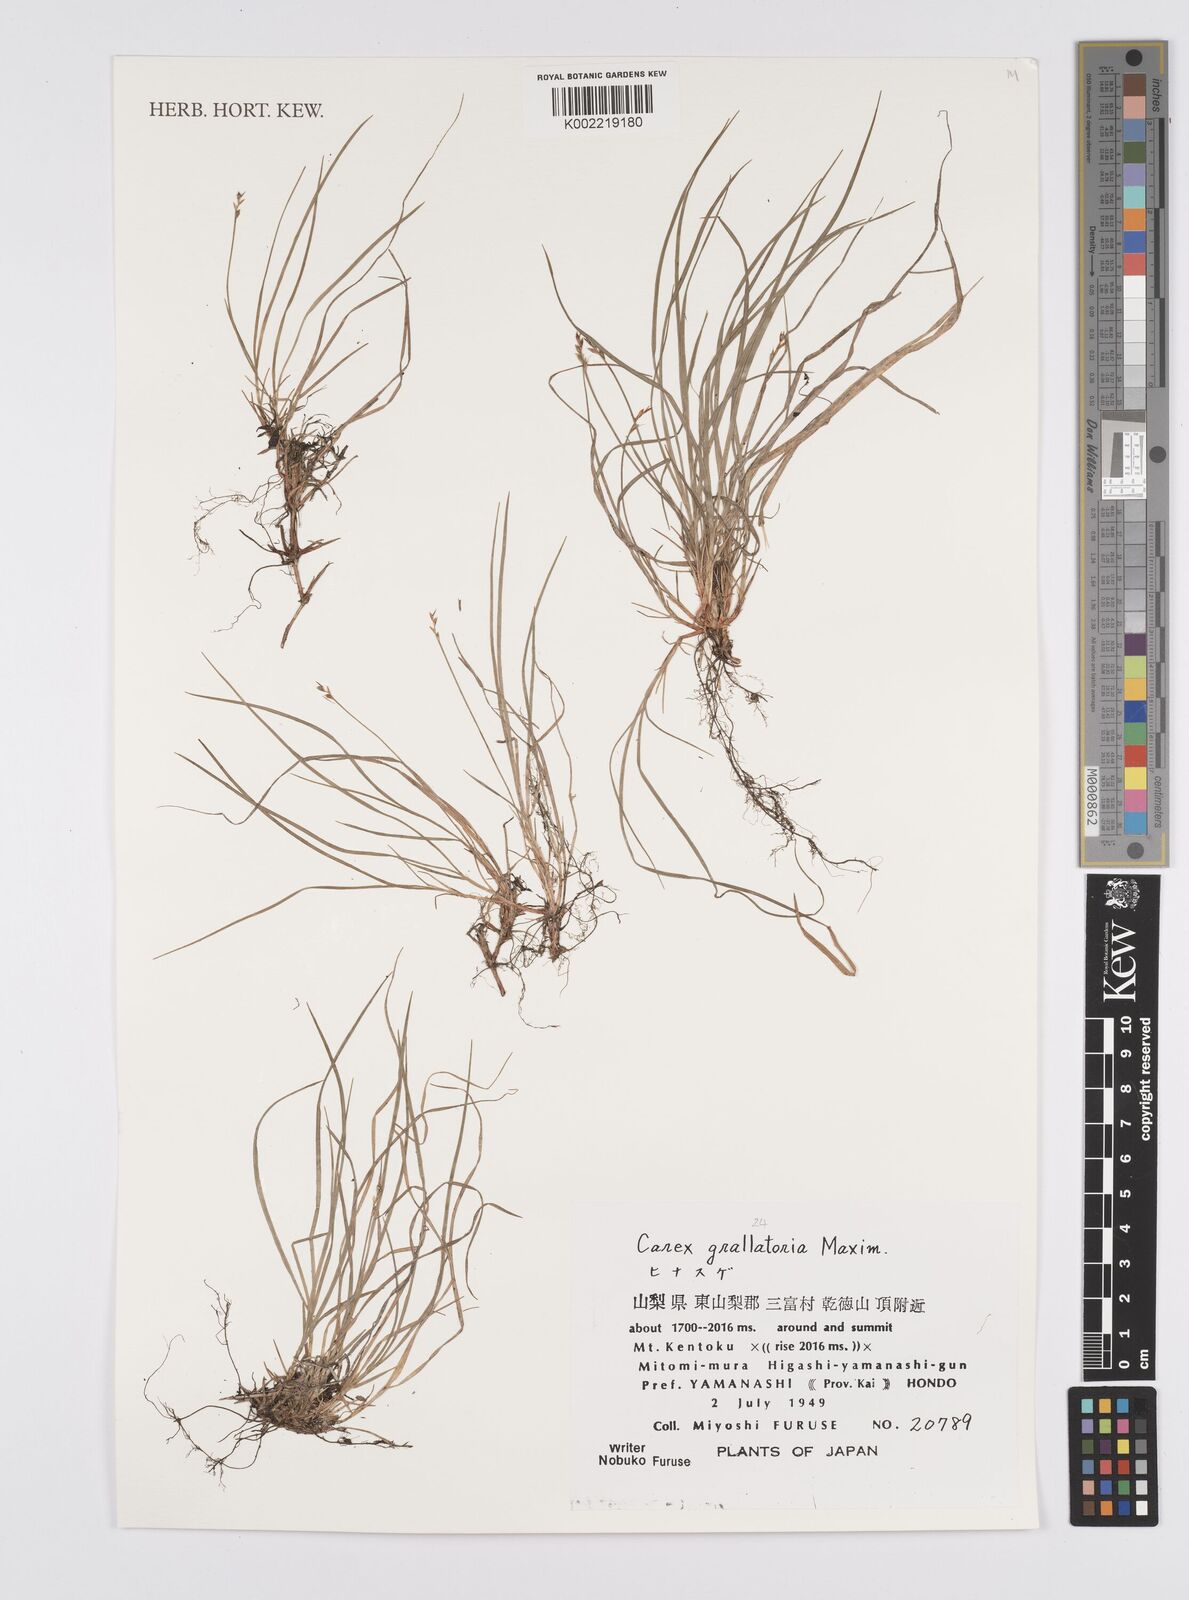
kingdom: Plantae
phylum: Tracheophyta
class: Liliopsida
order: Poales
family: Cyperaceae
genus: Carex
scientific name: Carex grallatoria
